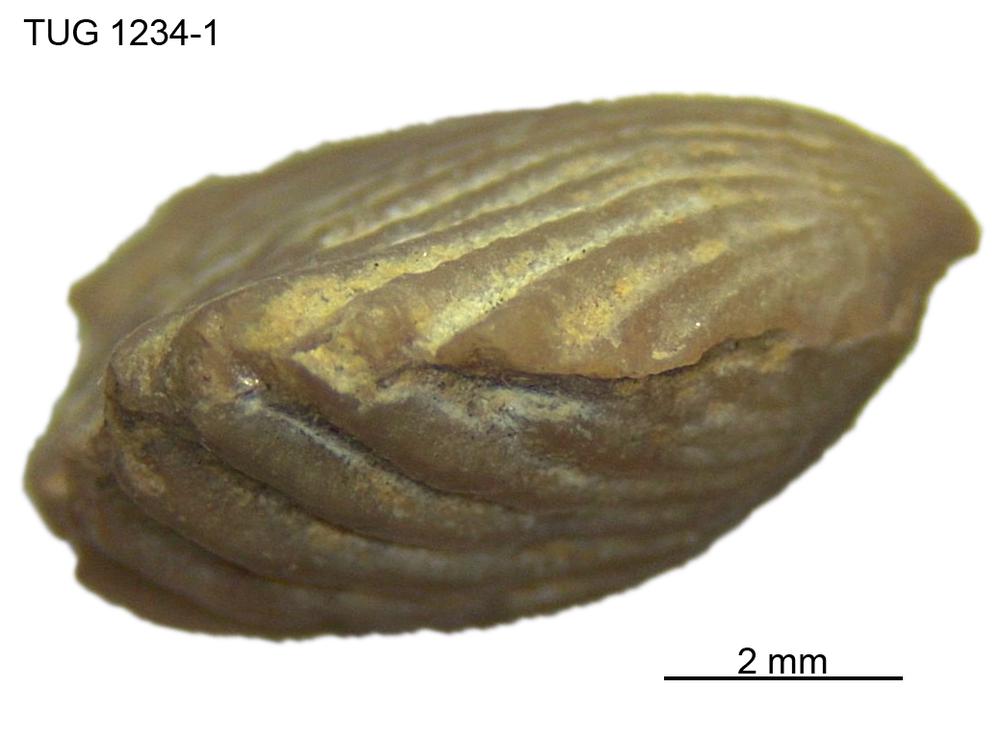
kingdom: Animalia
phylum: Brachiopoda
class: Rhynchonellata
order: Rhynchonellida
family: Trigonirhynchiidae
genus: Rostricellula
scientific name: Rostricellula nobilis
